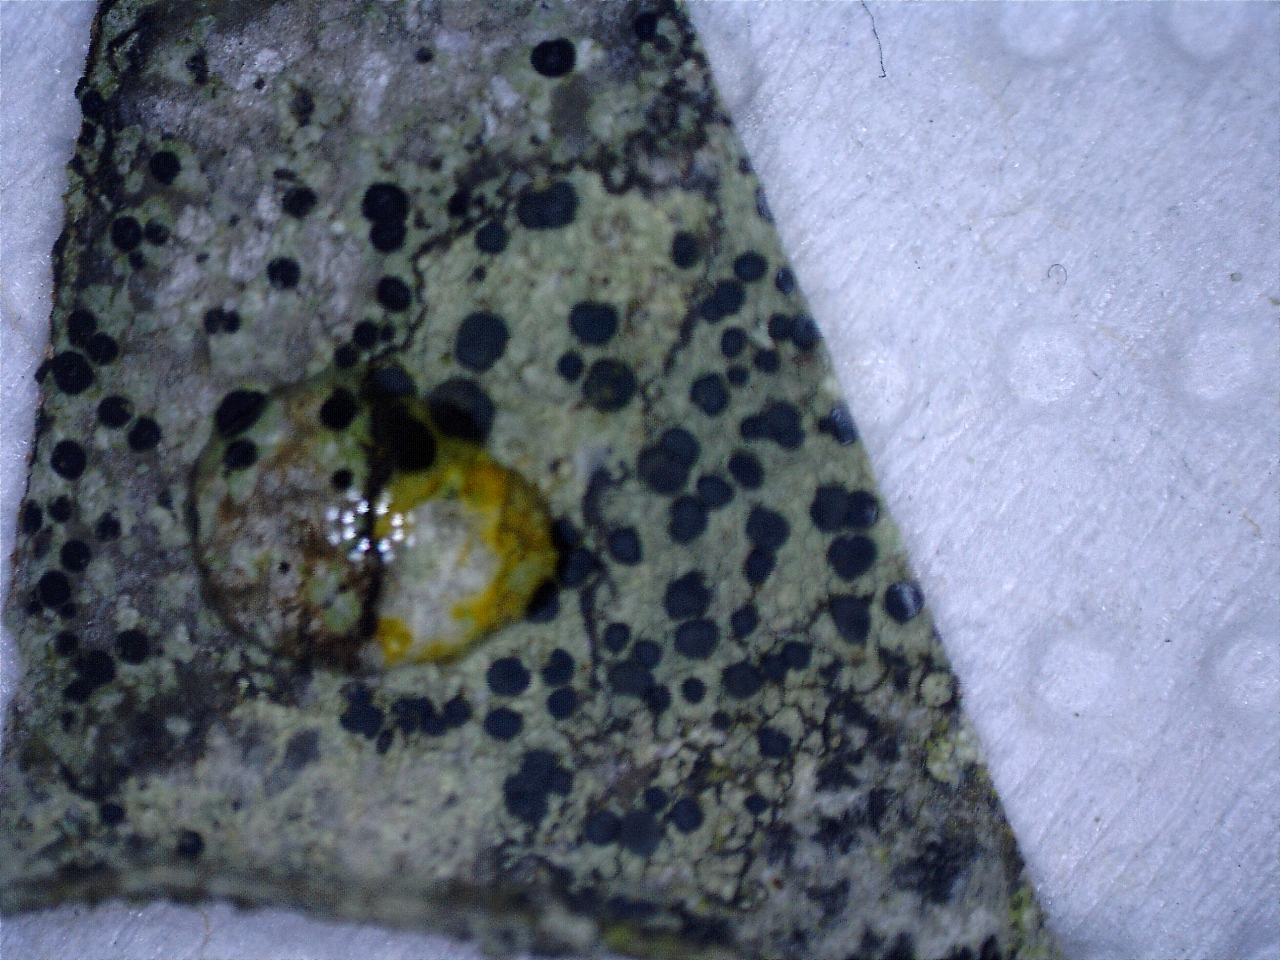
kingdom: Fungi
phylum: Ascomycota
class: Lecanoromycetes
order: Lecanorales
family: Lecanoraceae
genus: Lecidella
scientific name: Lecidella elaeochroma
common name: grågrøn skivelav
